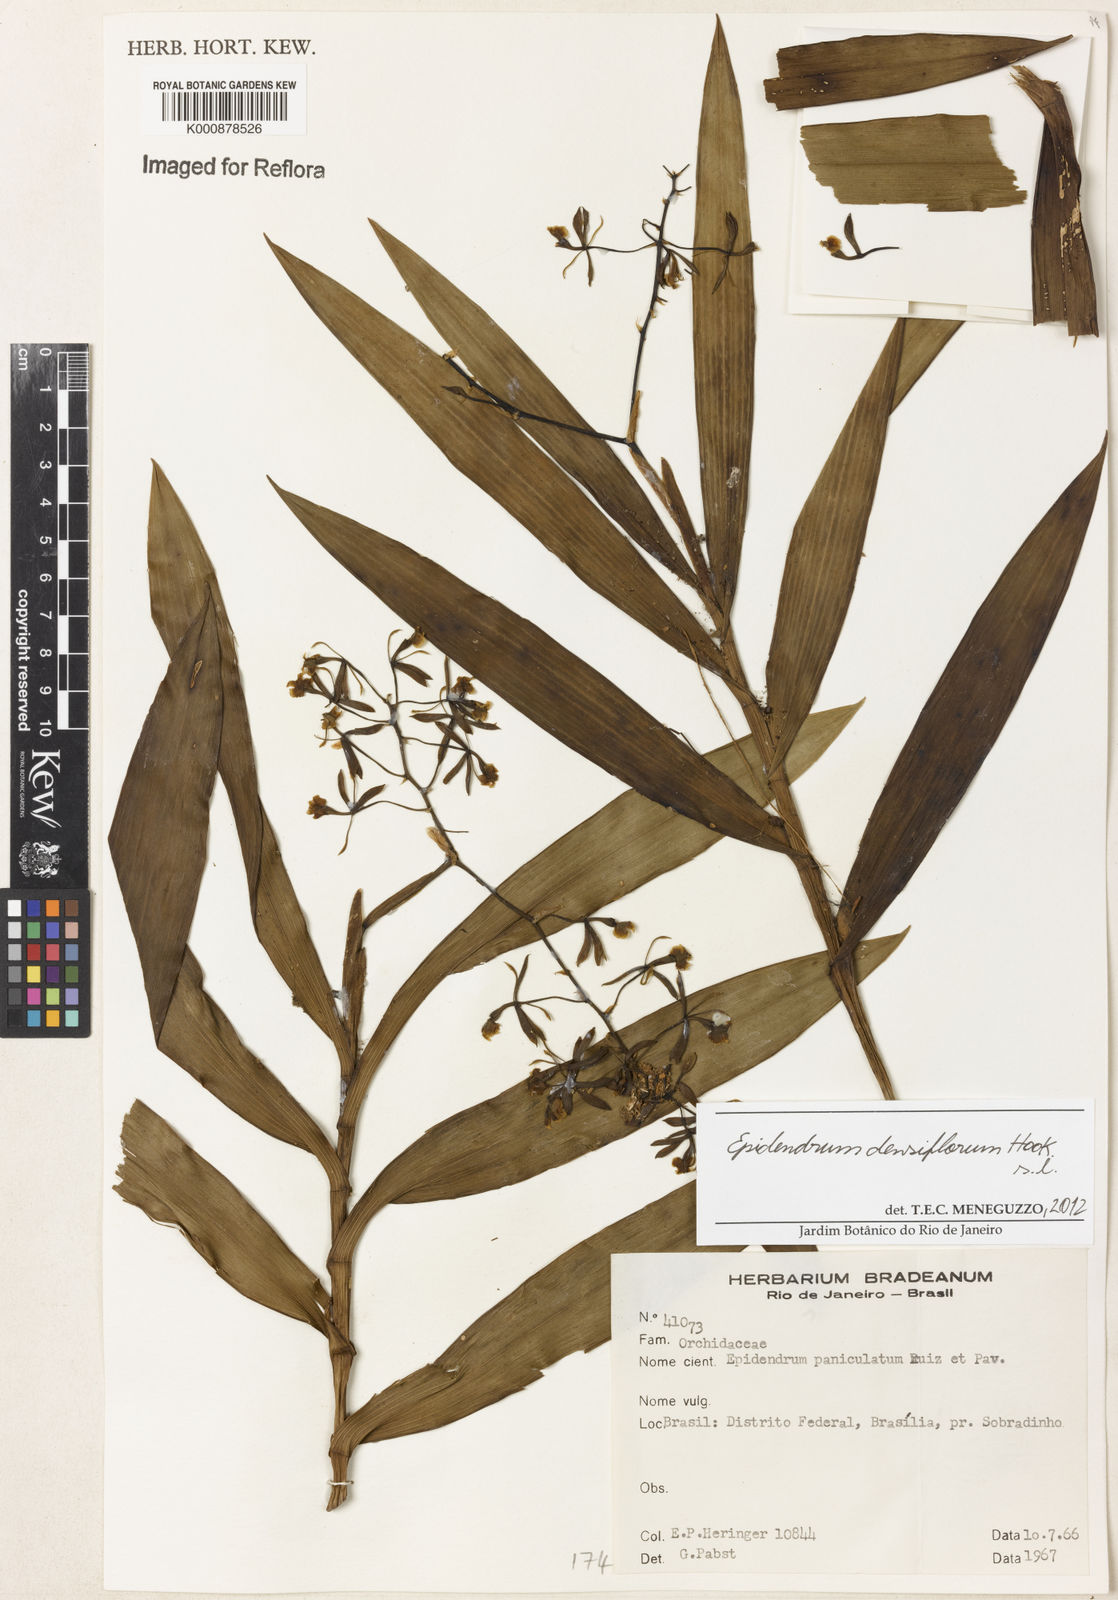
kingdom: Plantae
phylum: Tracheophyta
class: Liliopsida
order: Asparagales
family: Orchidaceae
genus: Epidendrum
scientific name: Epidendrum densiflorum
